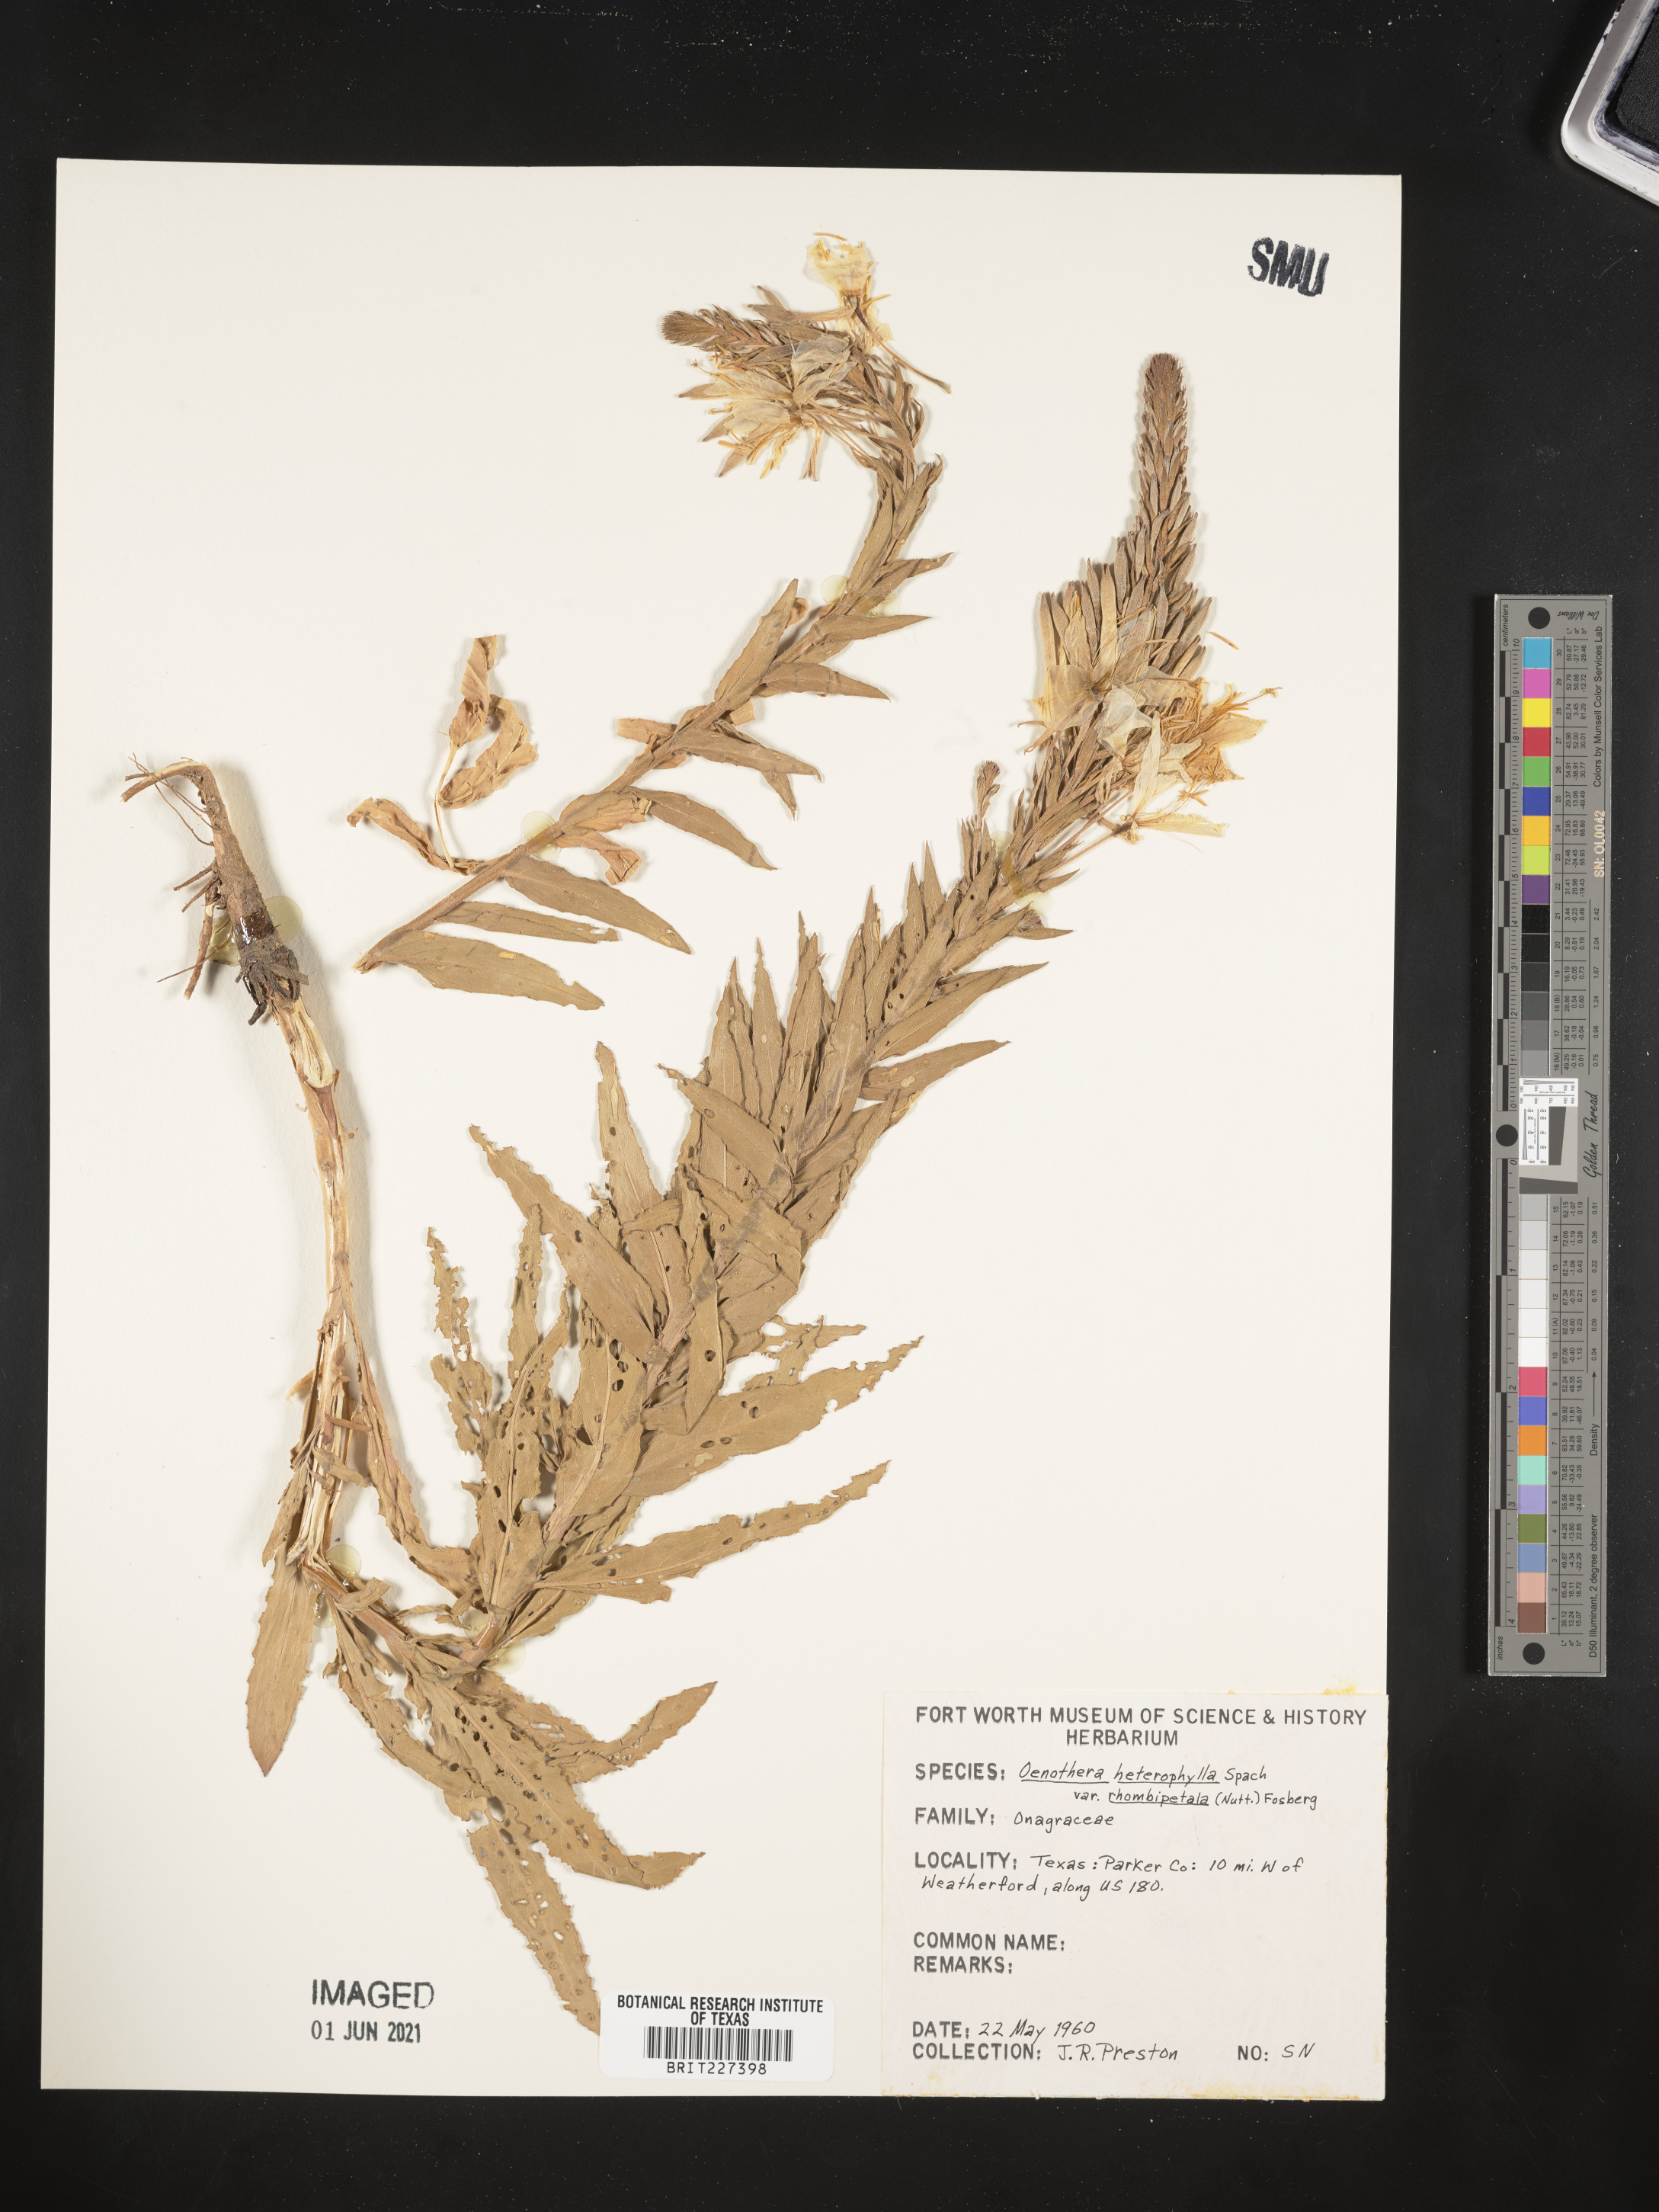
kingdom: Plantae
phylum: Tracheophyta
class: Magnoliopsida
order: Myrtales
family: Onagraceae
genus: Oenothera
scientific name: Oenothera rhombipetala
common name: Four-points evening-primrose
